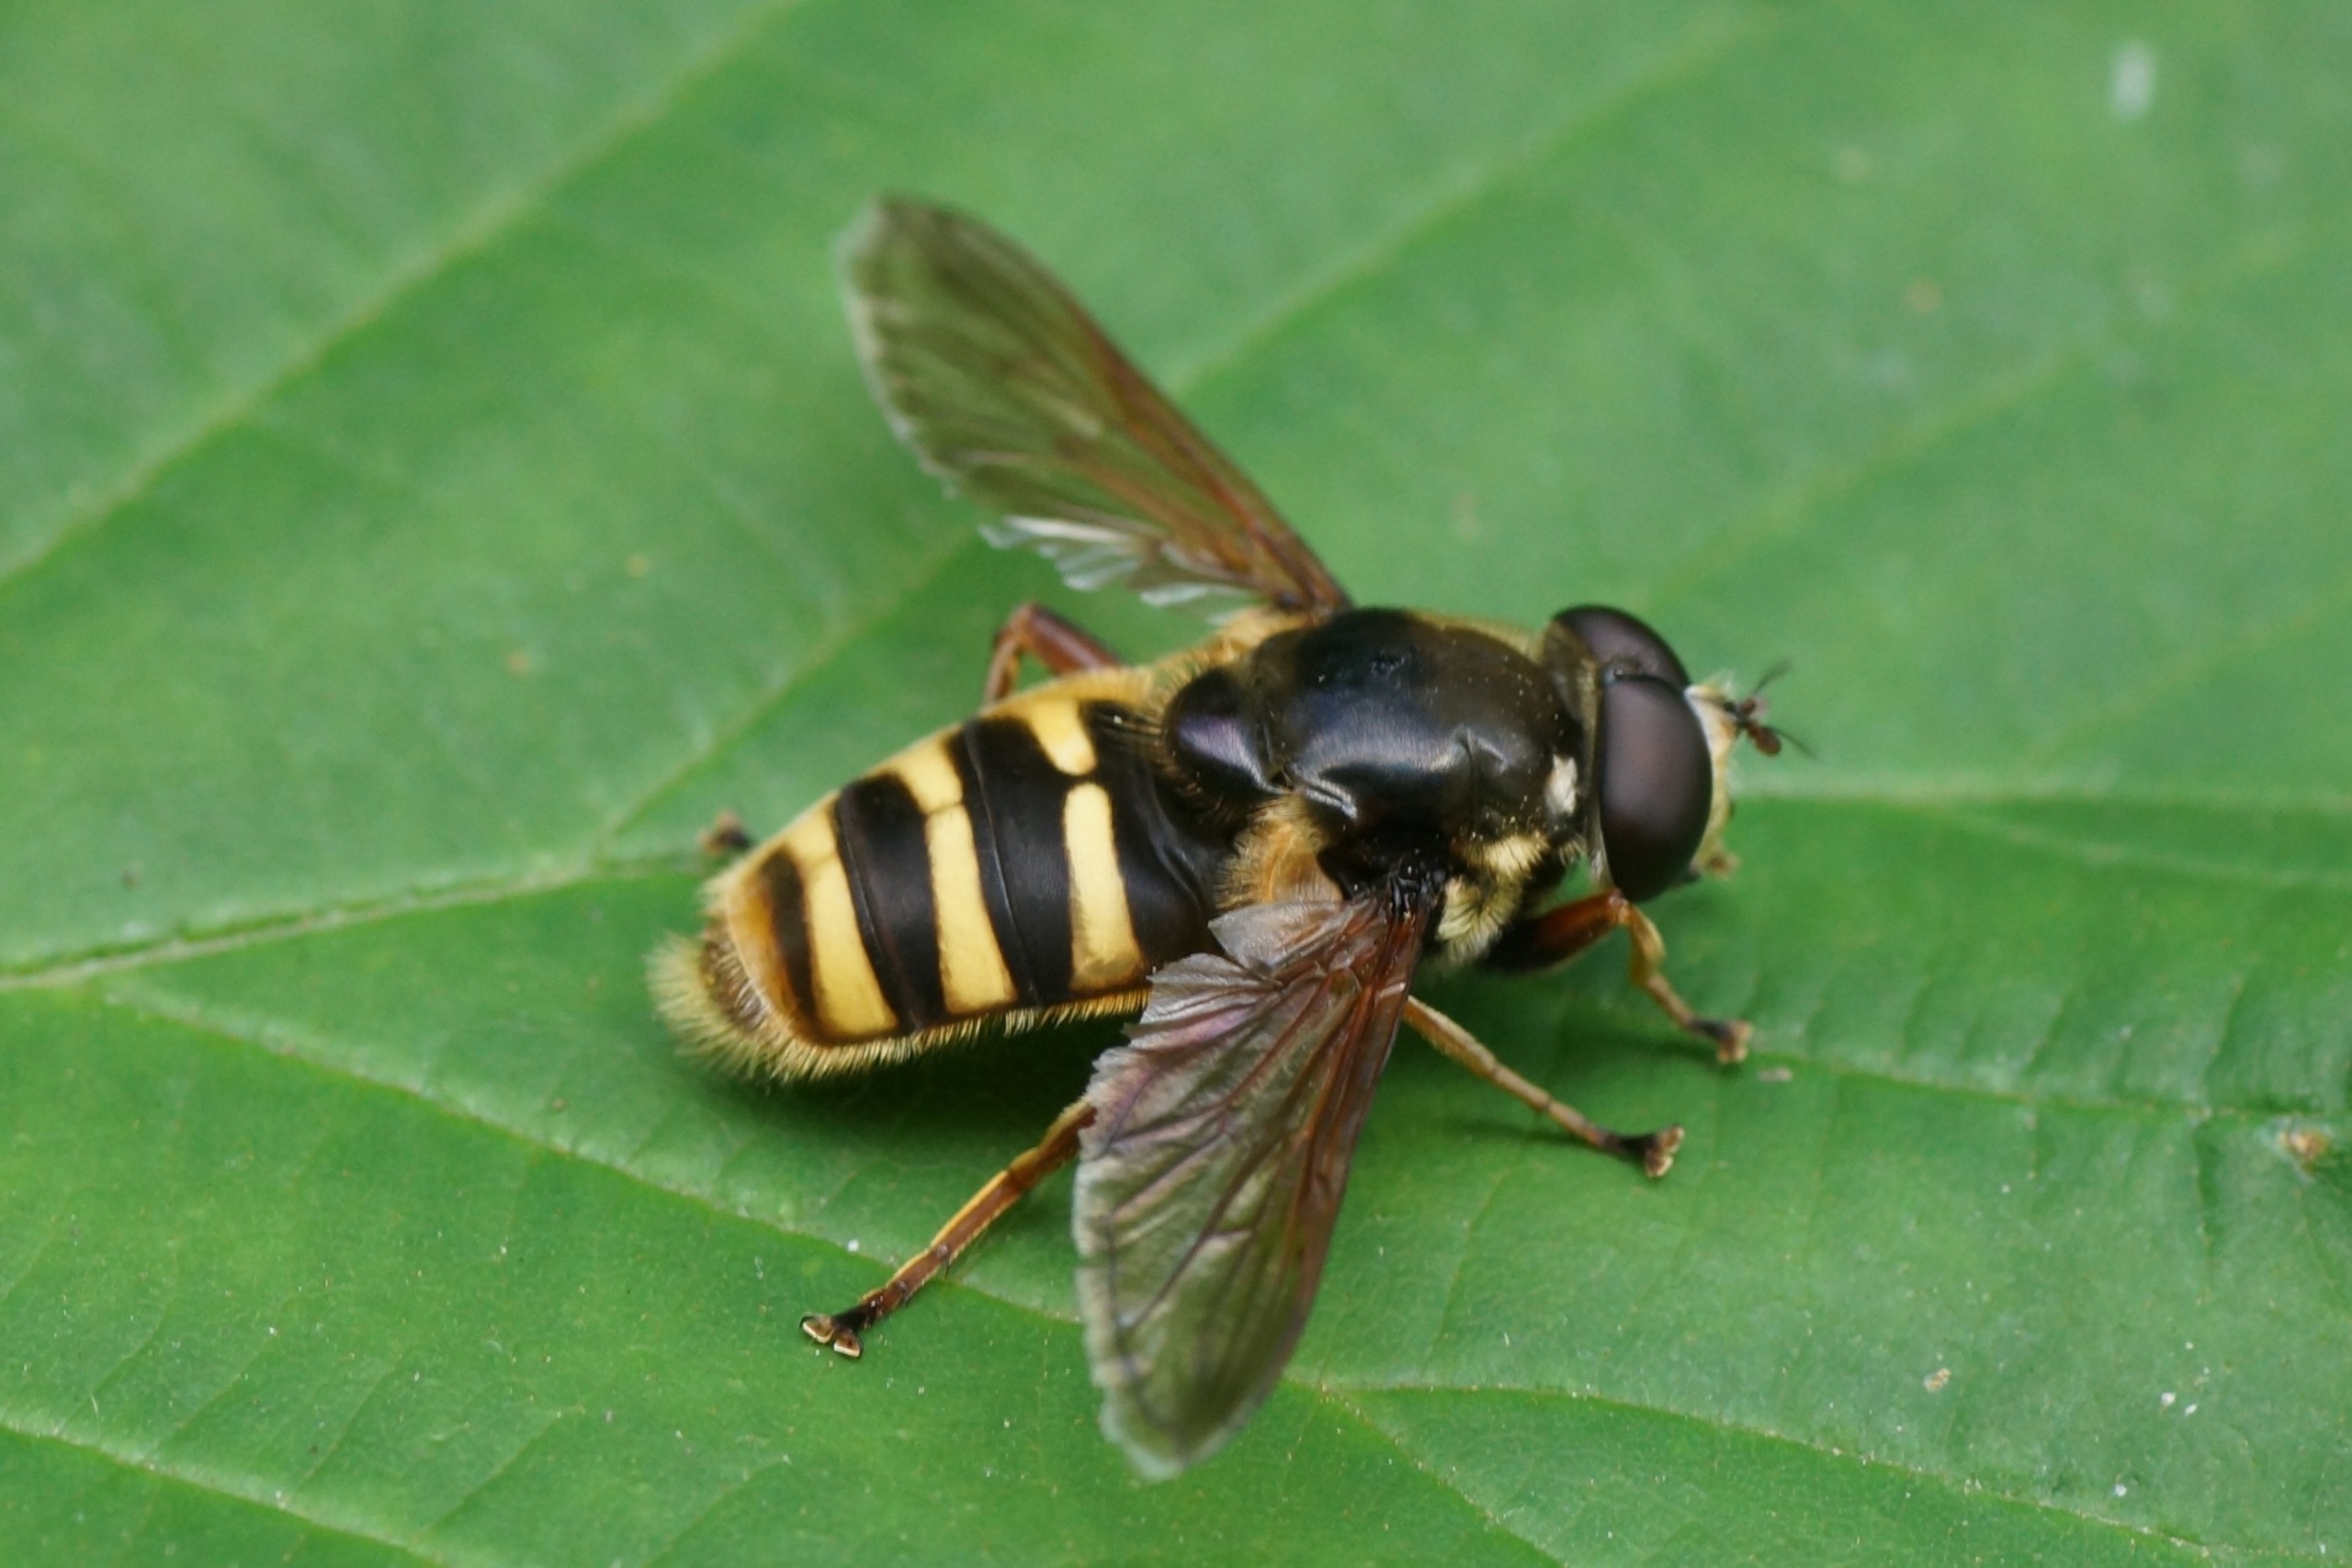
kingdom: Animalia
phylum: Arthropoda
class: Insecta
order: Diptera
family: Syrphidae
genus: Sericomyia
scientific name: Sericomyia silentis
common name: Tørve-silkesvirreflue
